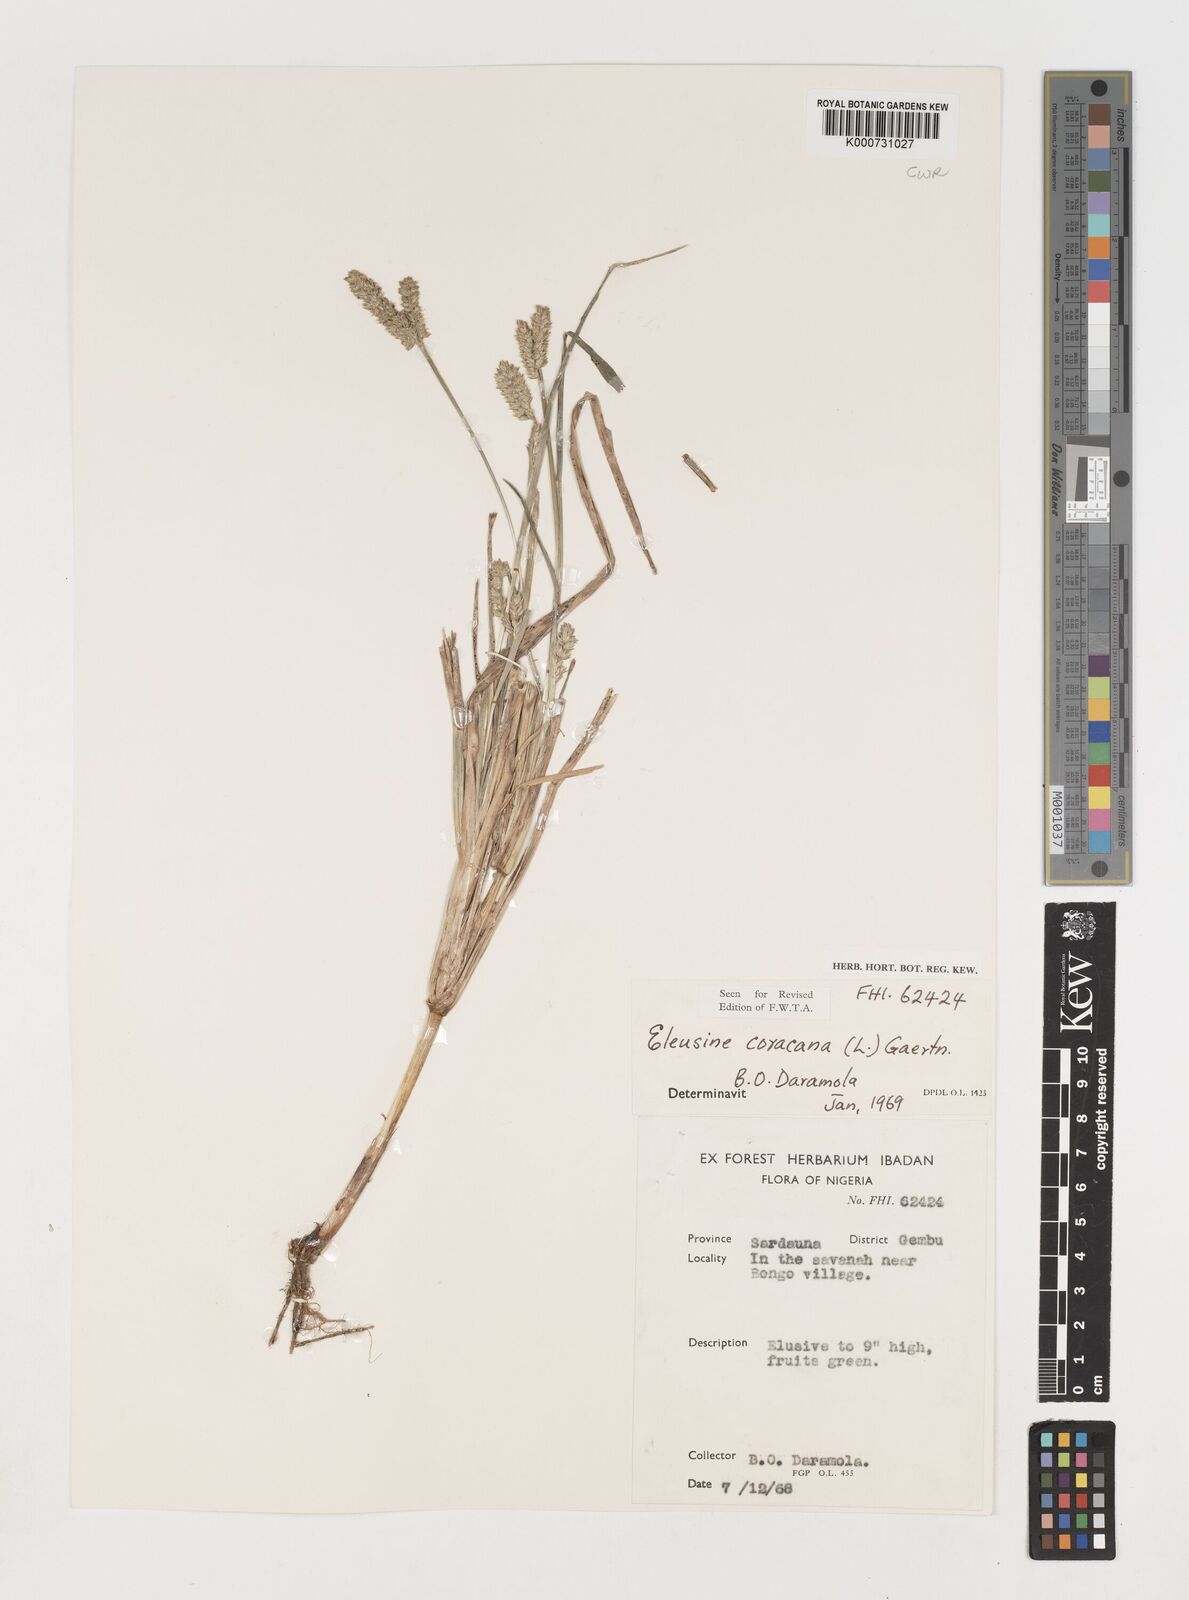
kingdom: Plantae
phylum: Tracheophyta
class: Liliopsida
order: Poales
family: Poaceae
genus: Eleusine
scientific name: Eleusine coracana
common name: Finger millet
